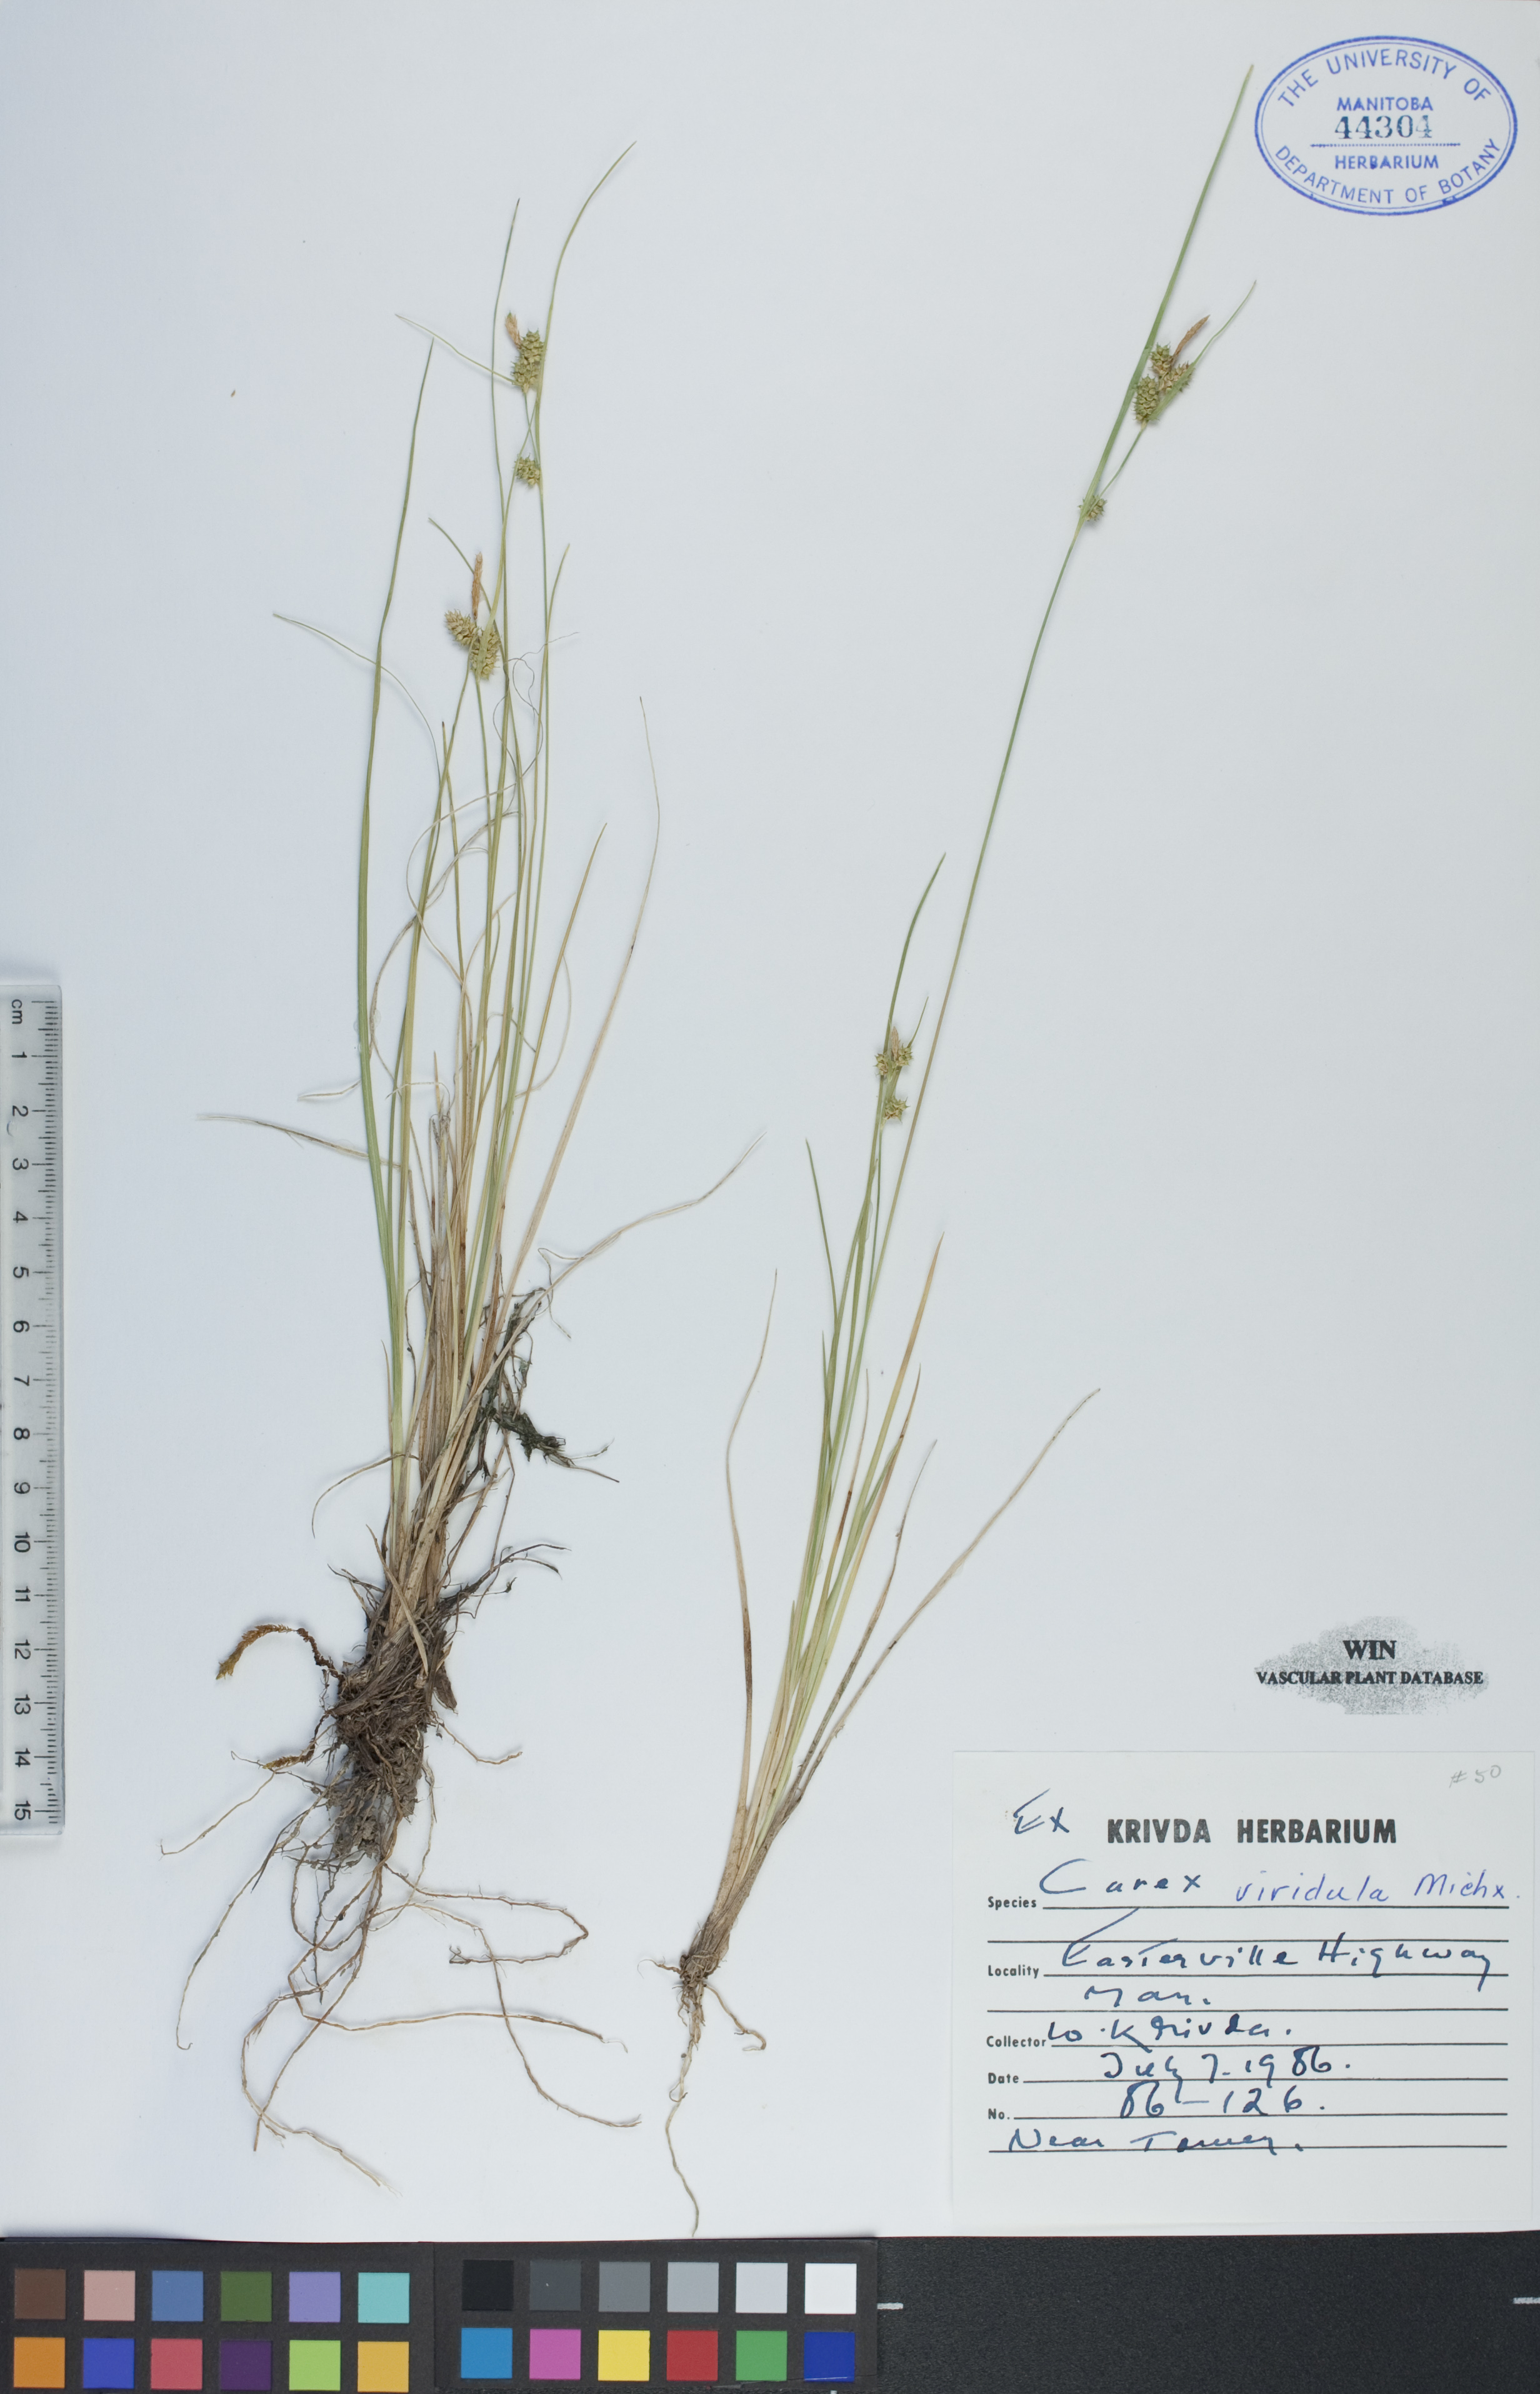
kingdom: Plantae
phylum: Tracheophyta
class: Liliopsida
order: Poales
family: Cyperaceae
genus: Carex
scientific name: Carex oederi
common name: Common & small-fruited yellow-sedge
